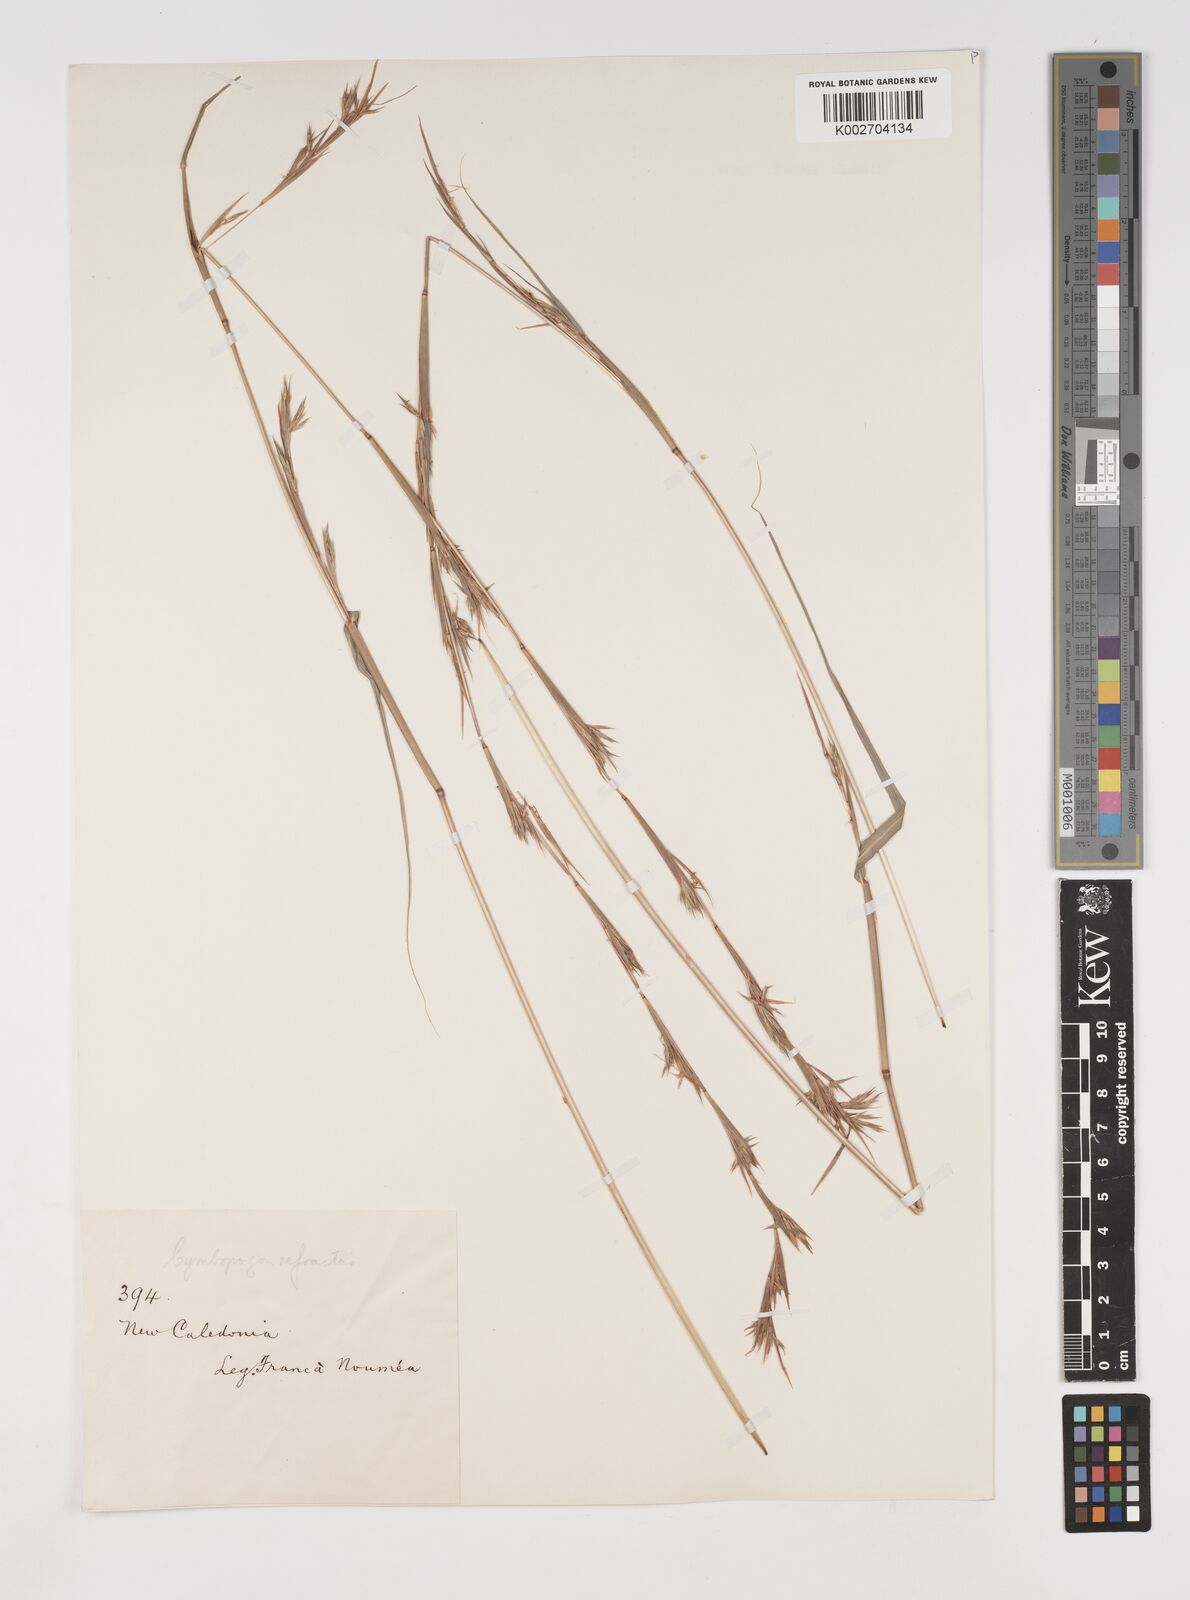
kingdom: Plantae
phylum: Tracheophyta
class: Liliopsida
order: Poales
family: Poaceae
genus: Cymbopogon
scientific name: Cymbopogon refractus
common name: Barbwire grass
